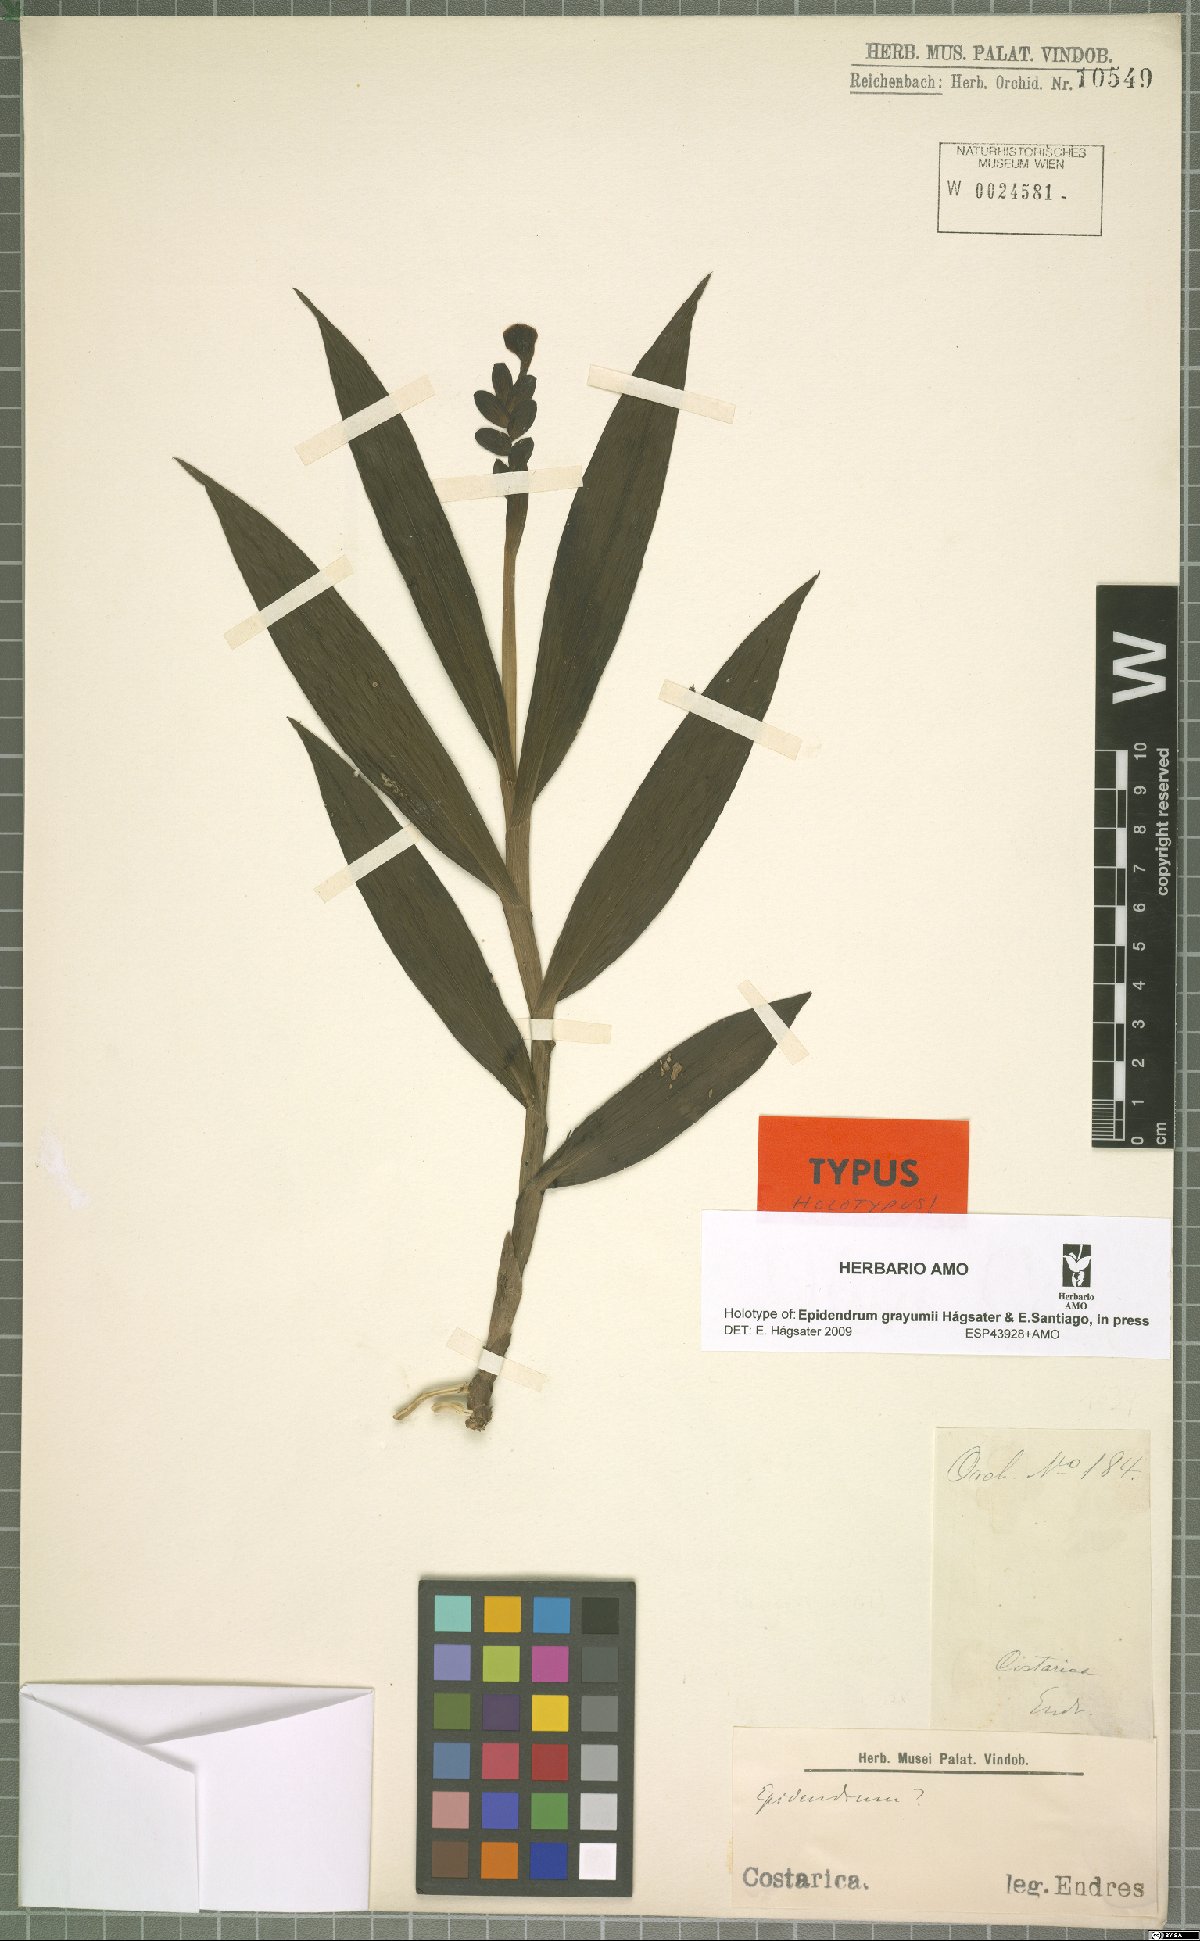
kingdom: Plantae
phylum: Tracheophyta
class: Liliopsida
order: Asparagales
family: Orchidaceae
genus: Epidendrum
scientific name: Epidendrum grayumii
